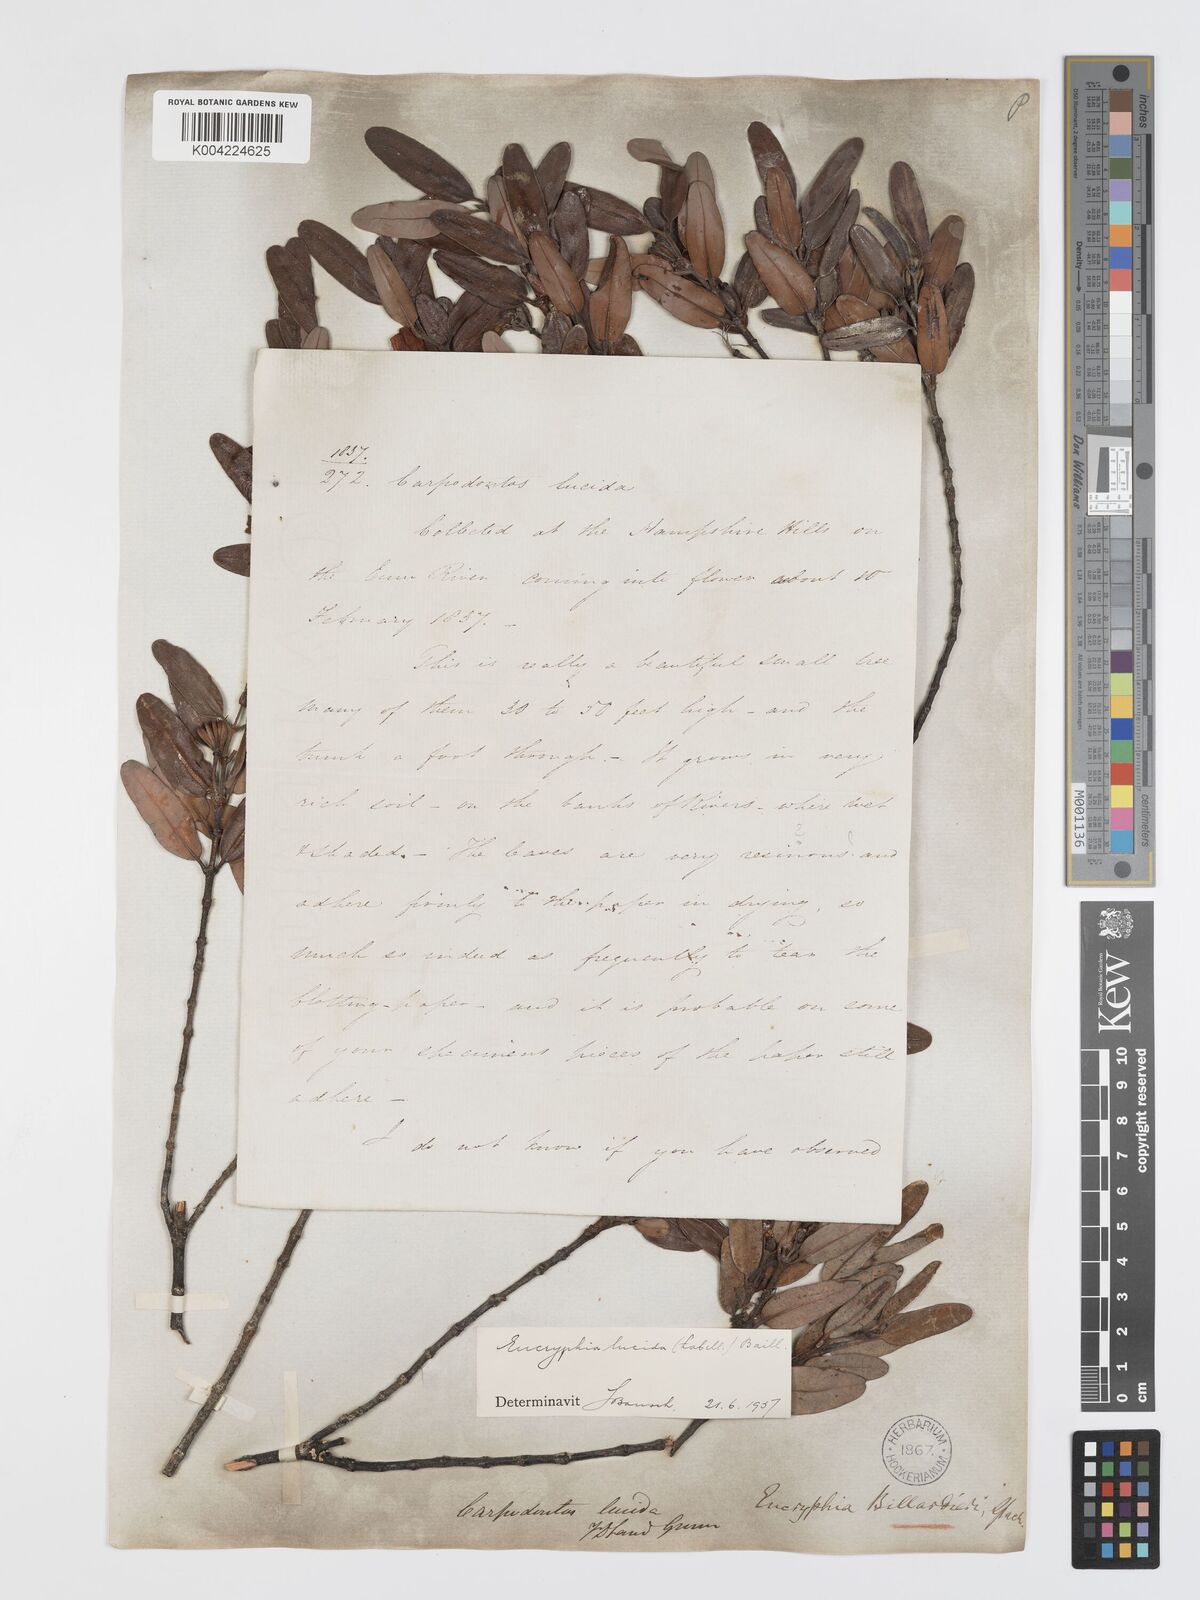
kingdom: Plantae
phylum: Tracheophyta
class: Magnoliopsida
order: Oxalidales
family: Cunoniaceae
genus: Eucryphia
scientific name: Eucryphia lucida
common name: Leatherwood
